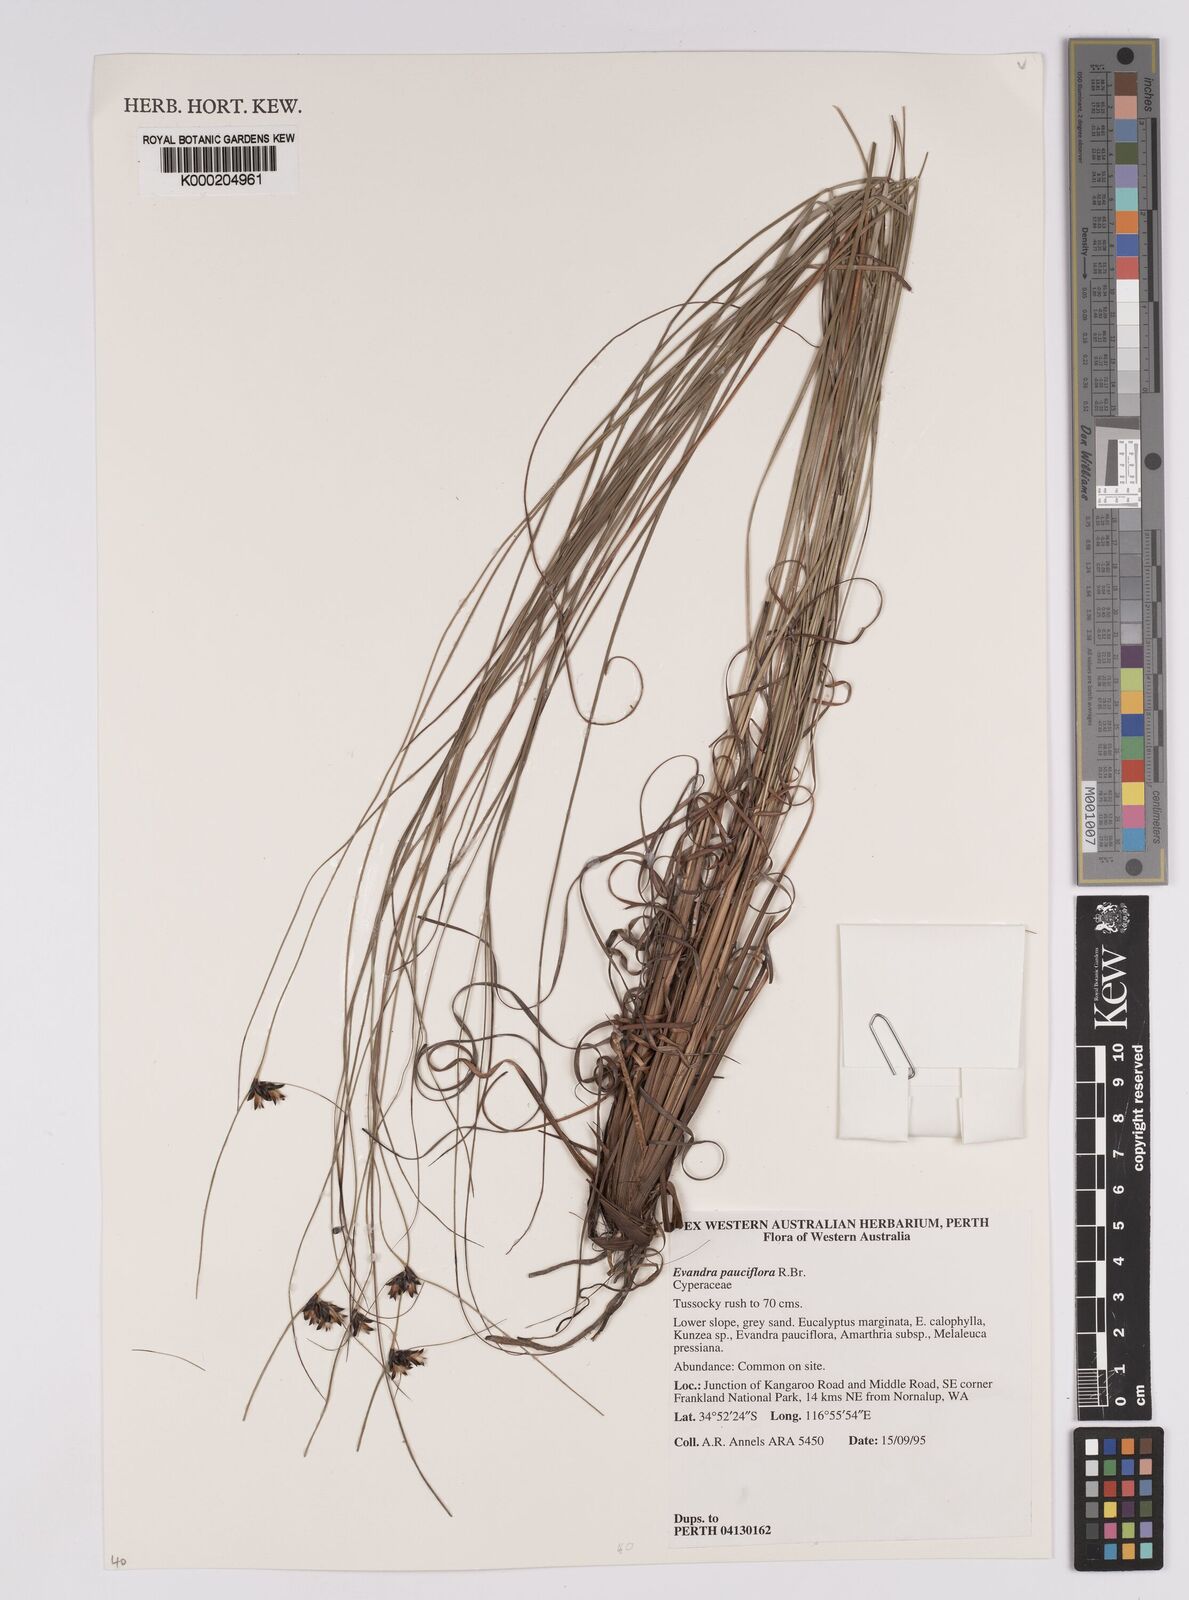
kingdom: Plantae
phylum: Tracheophyta
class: Liliopsida
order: Poales
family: Cyperaceae
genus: Evandra
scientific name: Evandra pauciflora
